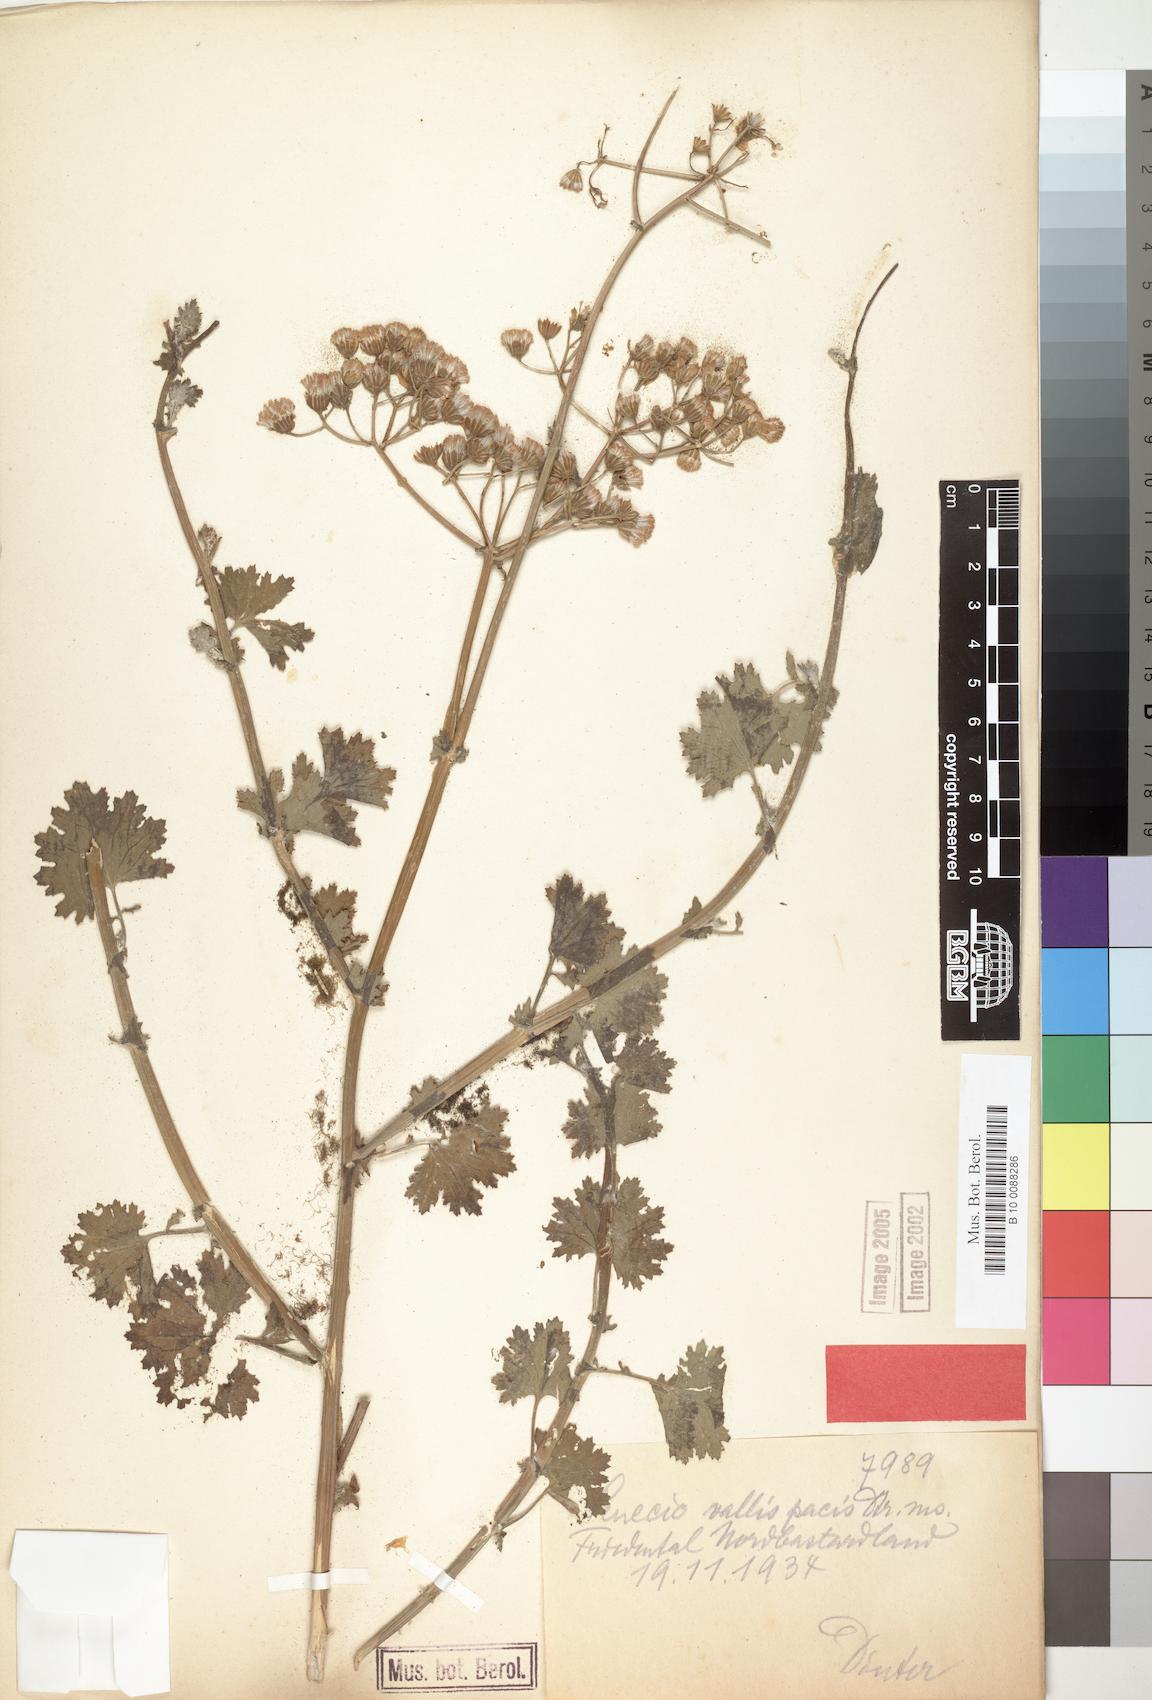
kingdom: Plantae
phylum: Tracheophyta
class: Magnoliopsida
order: Asterales
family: Asteraceae
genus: Cineraria
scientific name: Cineraria vallis-pacis
